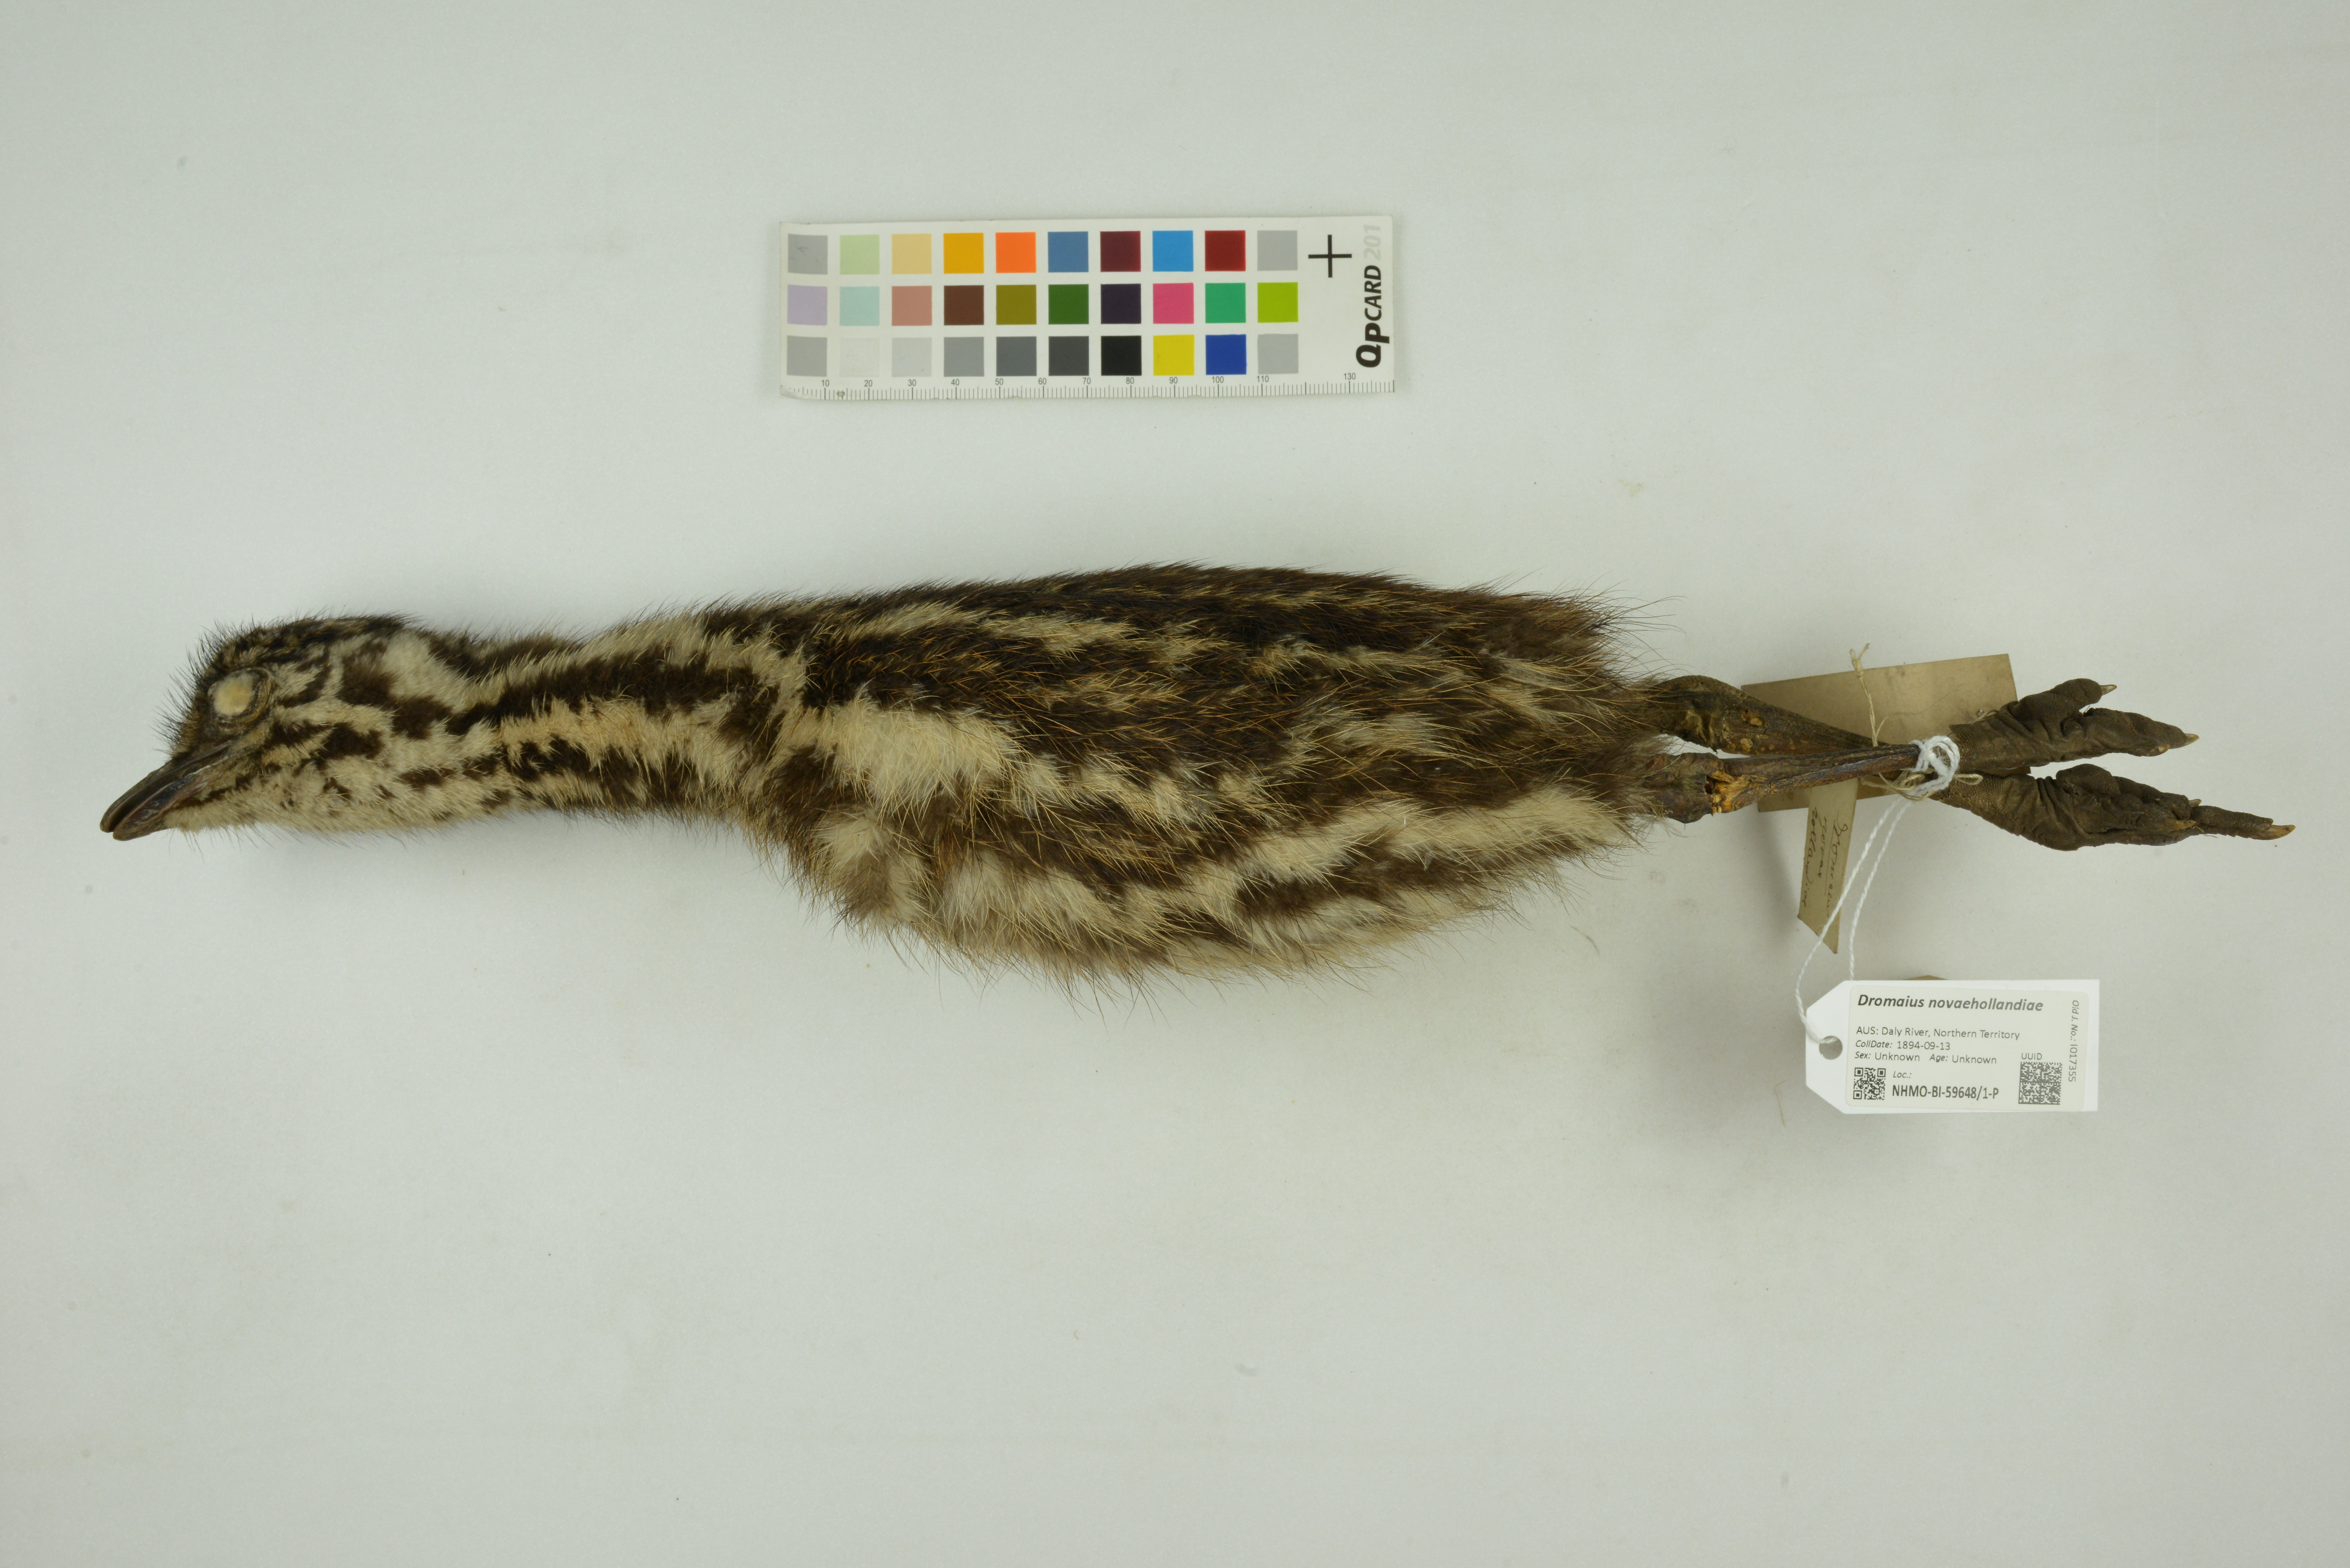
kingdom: Animalia
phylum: Chordata
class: Aves
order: Casuariiformes
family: Dromaiidae
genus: Dromaius
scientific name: Dromaius novaehollandiae
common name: Emu
